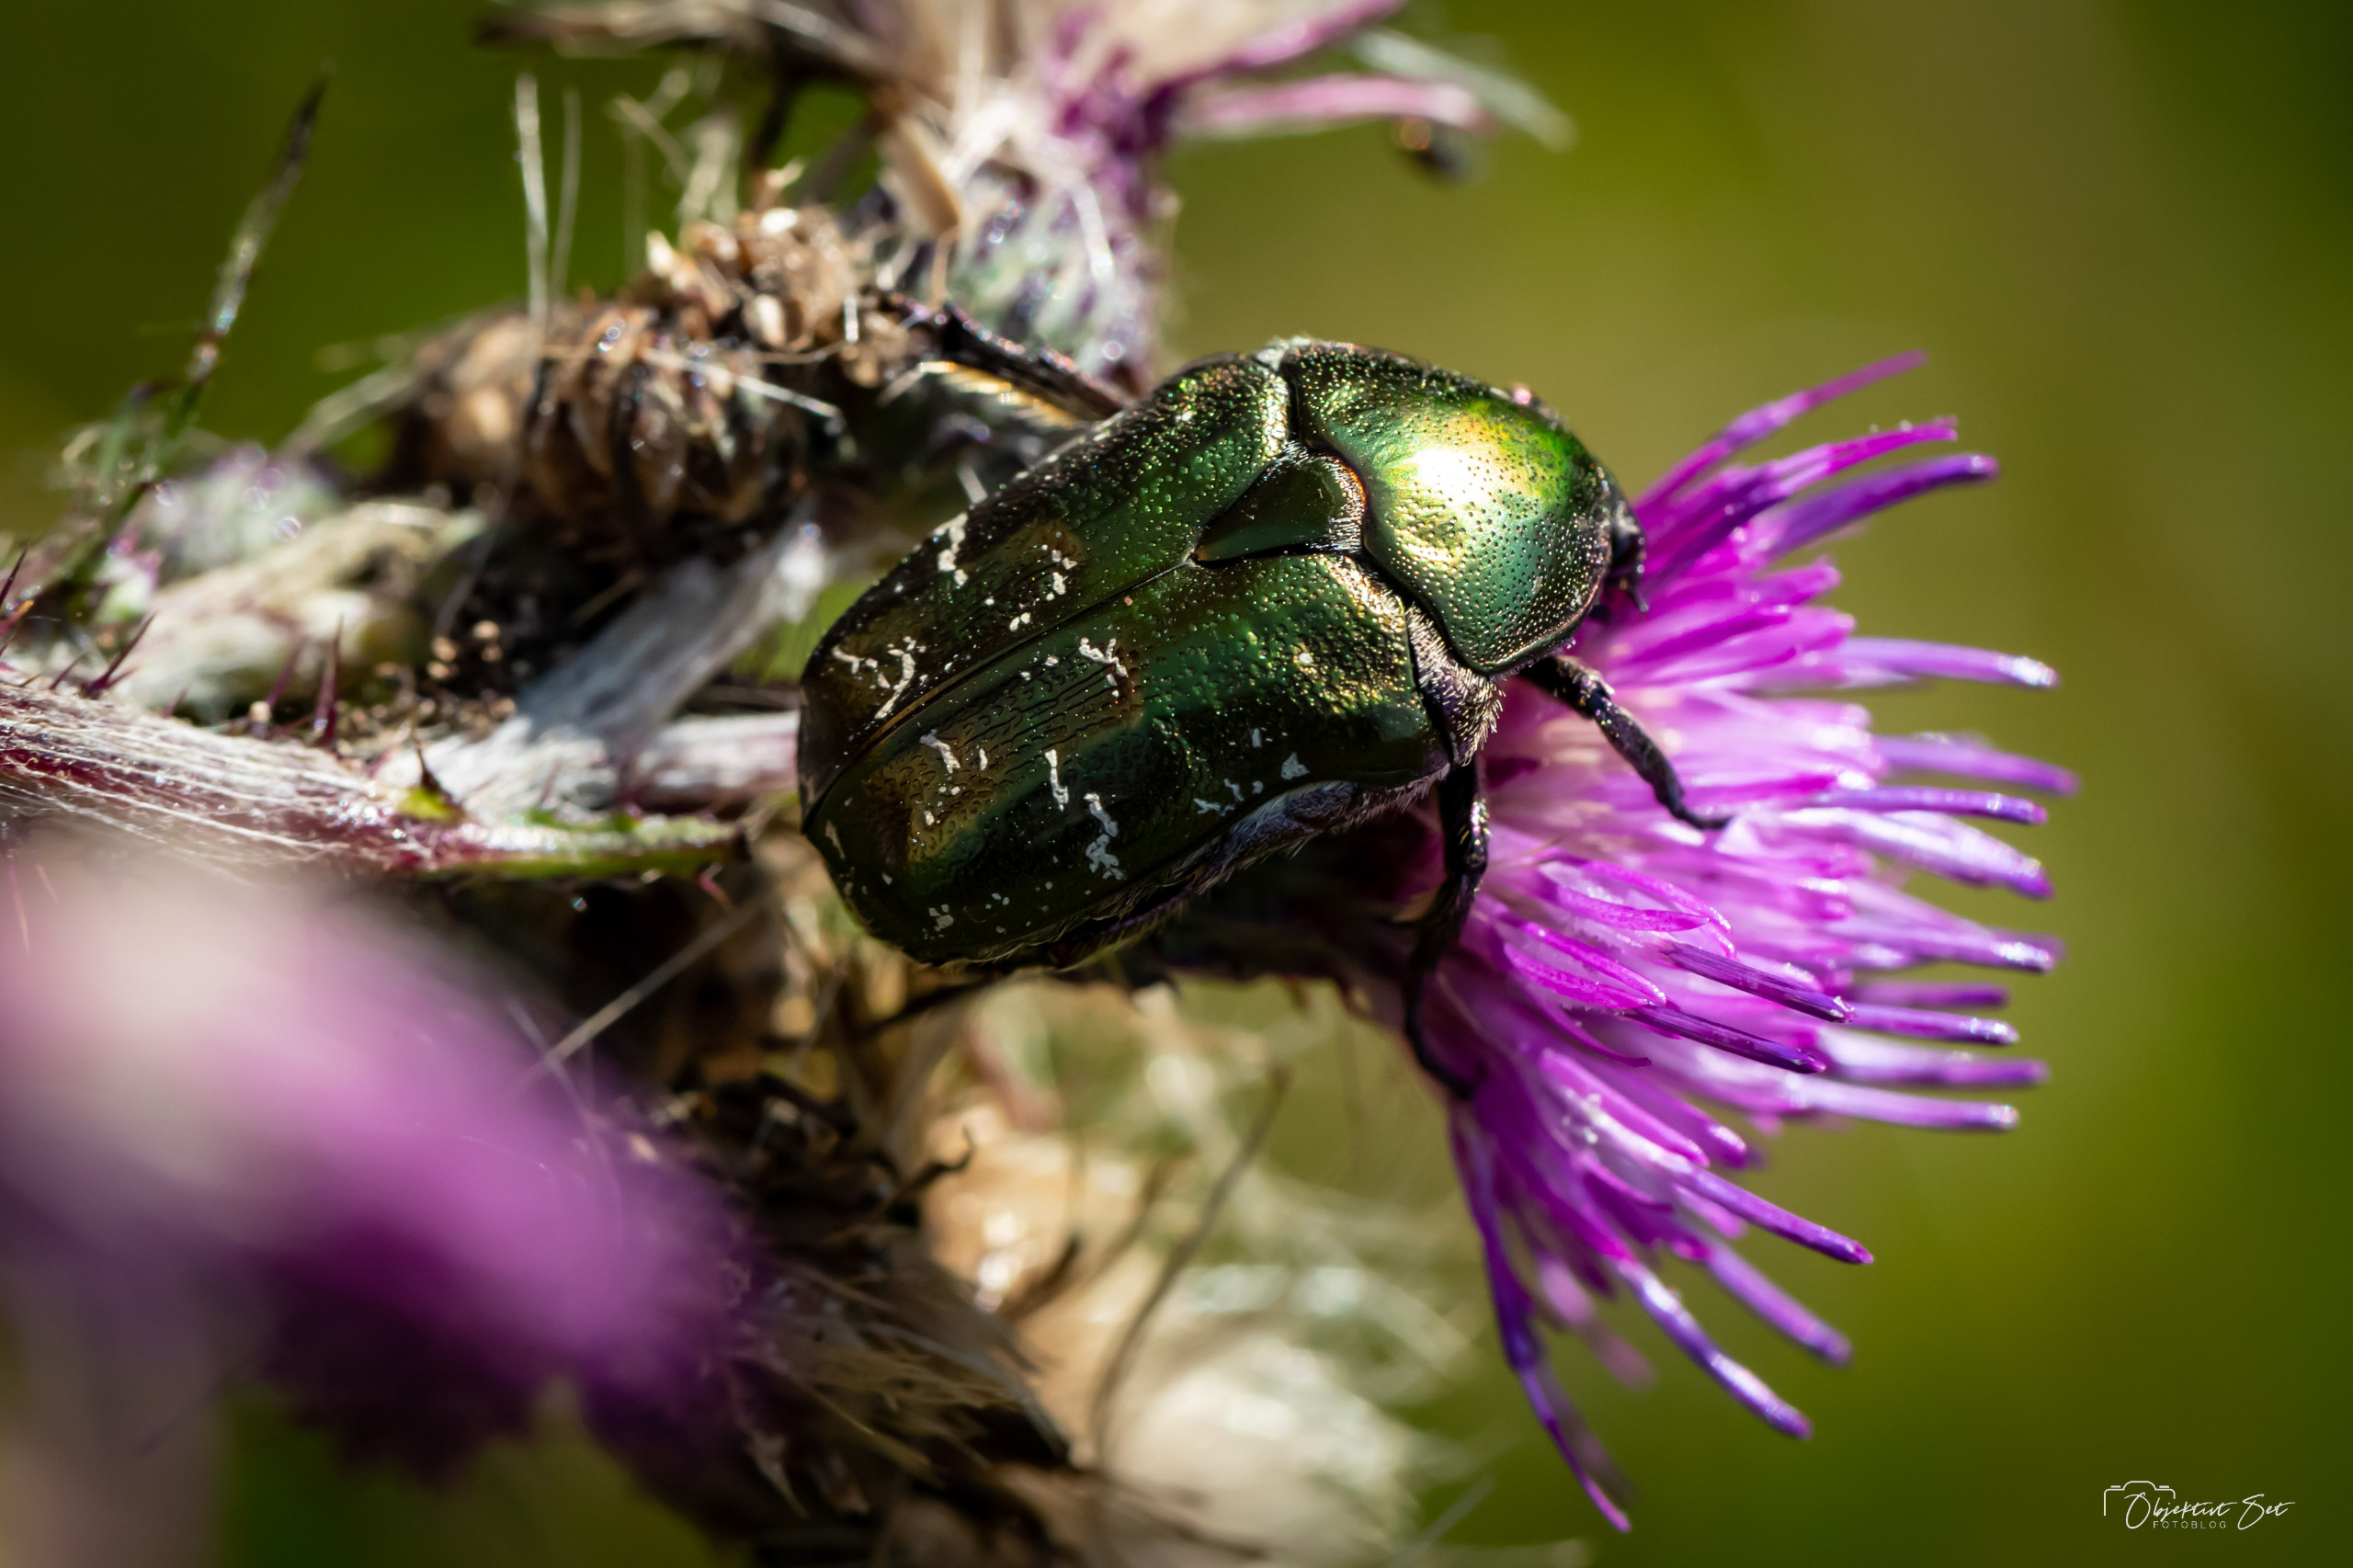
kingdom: Animalia
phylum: Arthropoda
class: Insecta
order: Coleoptera
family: Scarabaeidae
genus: Protaetia
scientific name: Protaetia cuprea
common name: Kobberguldbasse
